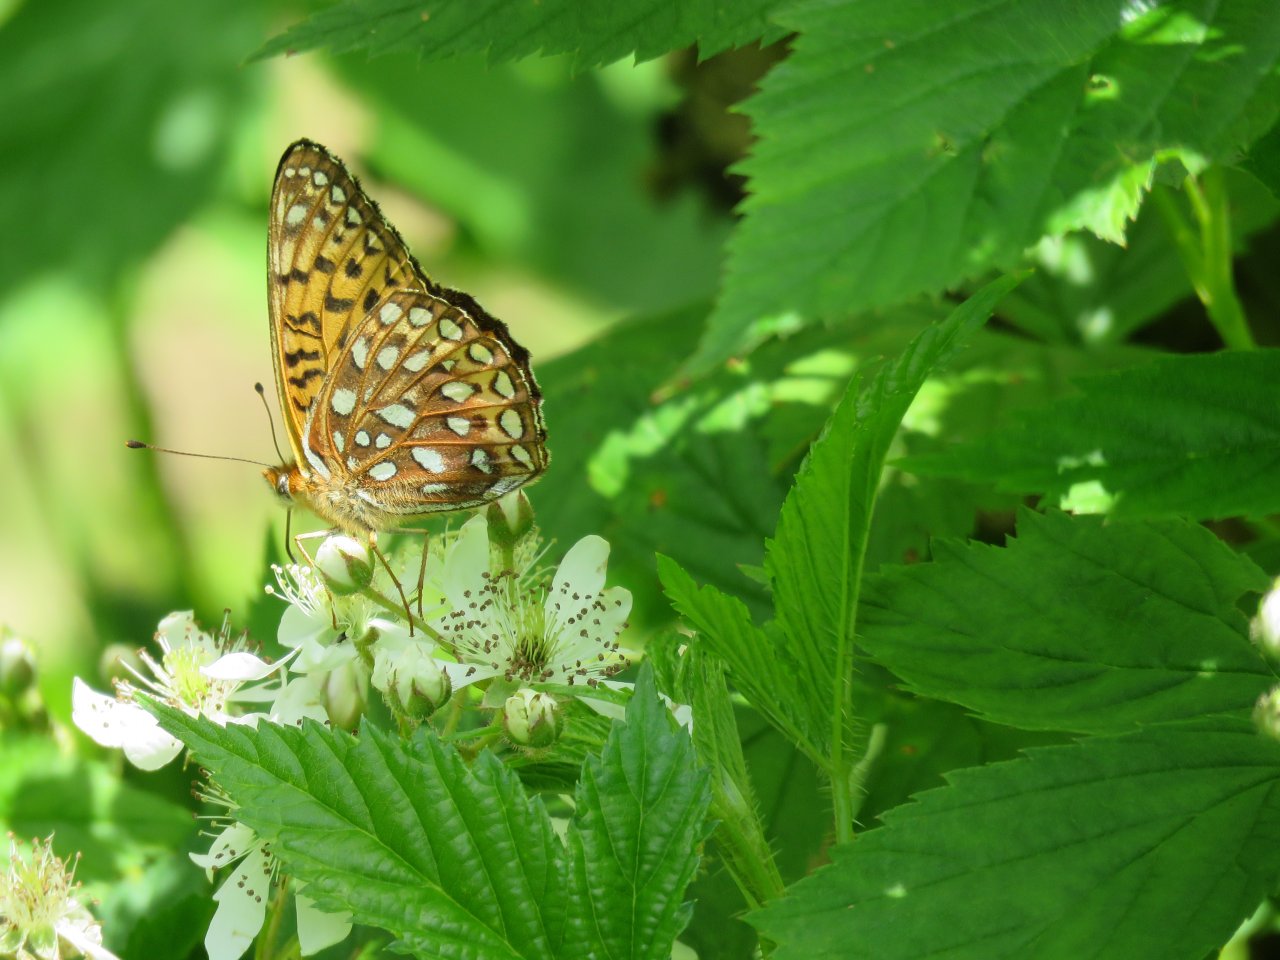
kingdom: Animalia
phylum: Arthropoda
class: Insecta
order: Lepidoptera
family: Nymphalidae
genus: Speyeria
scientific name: Speyeria atlantis
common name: Atlantis Fritillary
